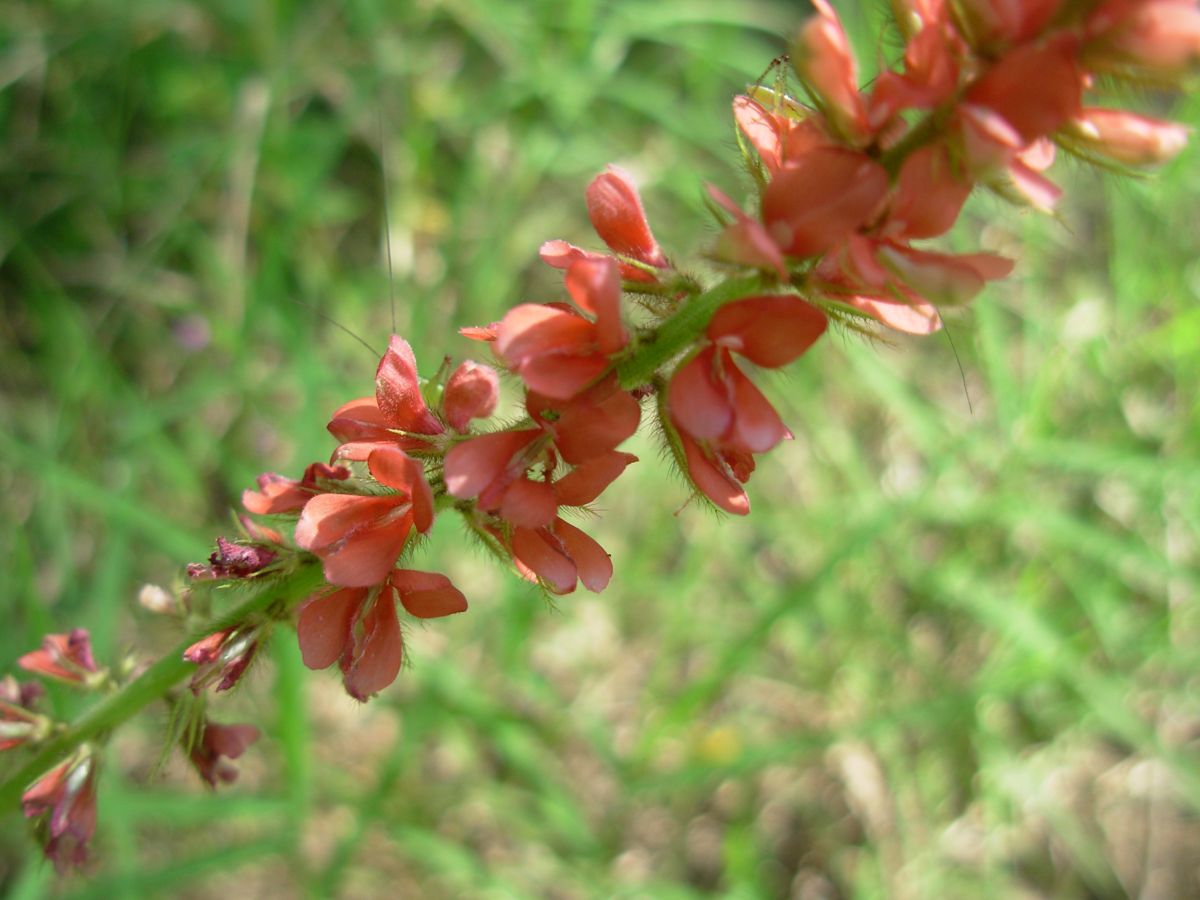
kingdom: Plantae
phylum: Tracheophyta
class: Magnoliopsida
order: Fabales
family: Fabaceae
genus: Indigofera
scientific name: Indigofera hirsuta
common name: Hairy indigo
